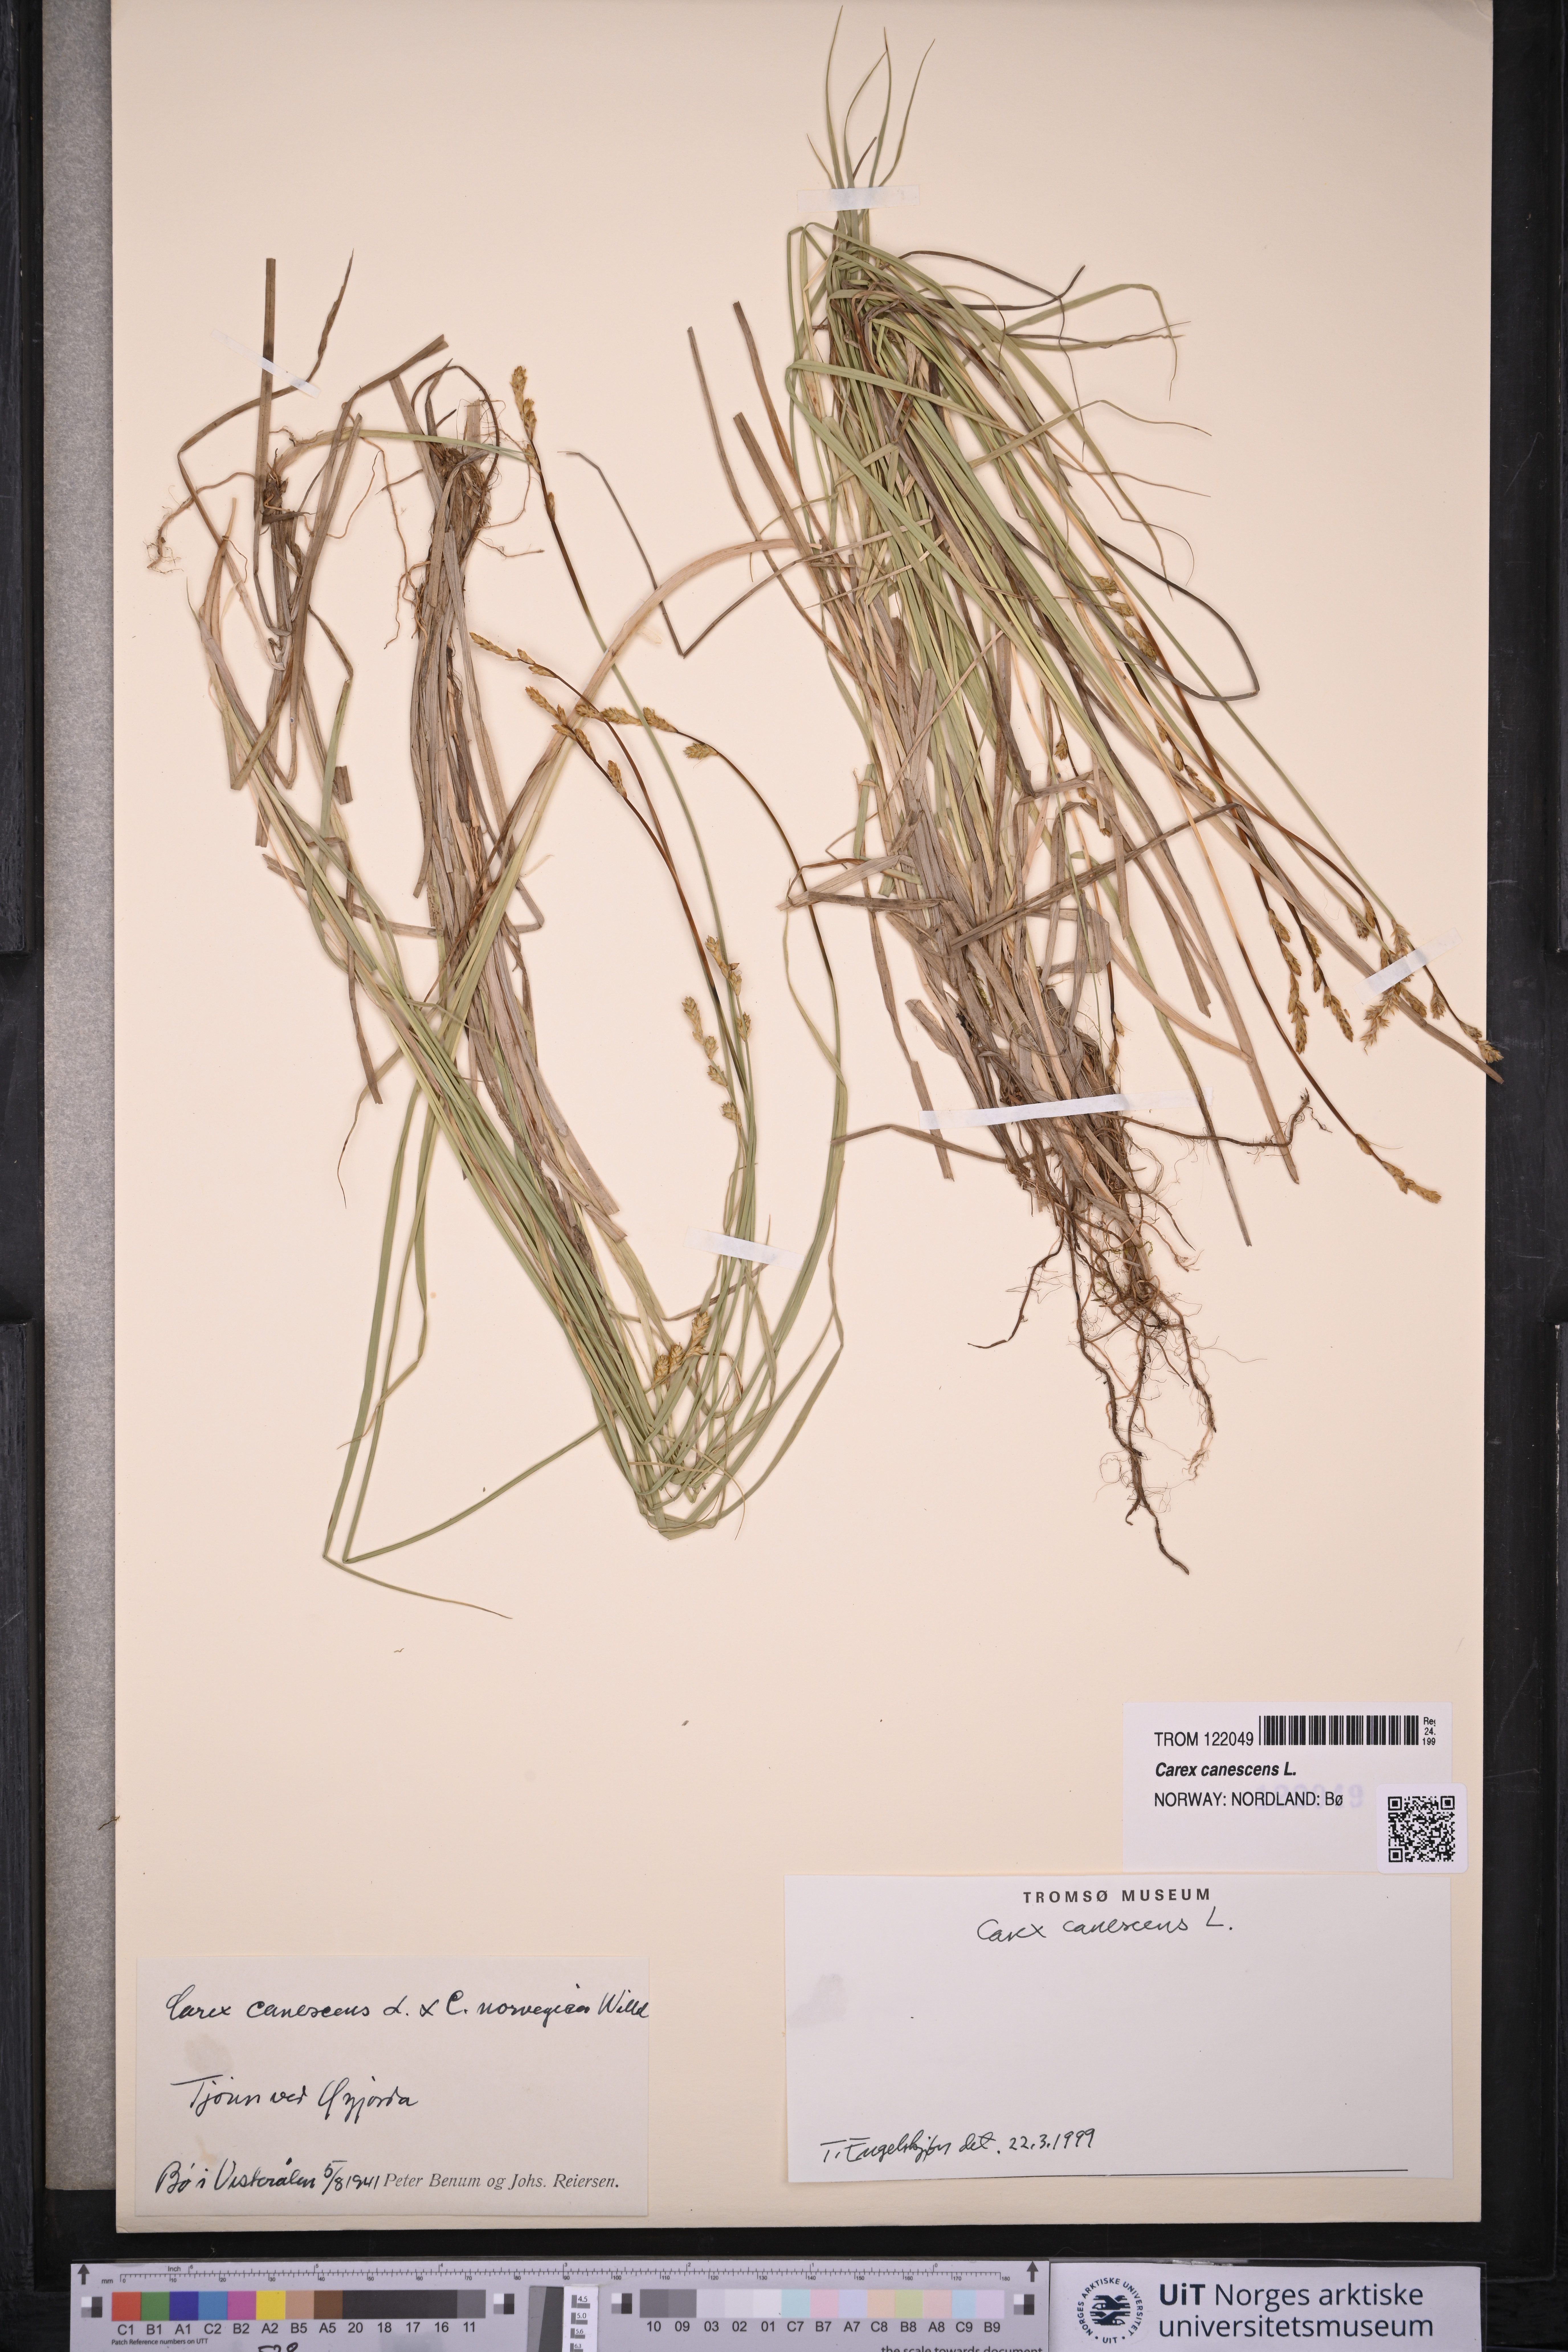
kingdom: Plantae
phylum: Tracheophyta
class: Liliopsida
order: Poales
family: Cyperaceae
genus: Carex
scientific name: Carex canescens
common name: White sedge
